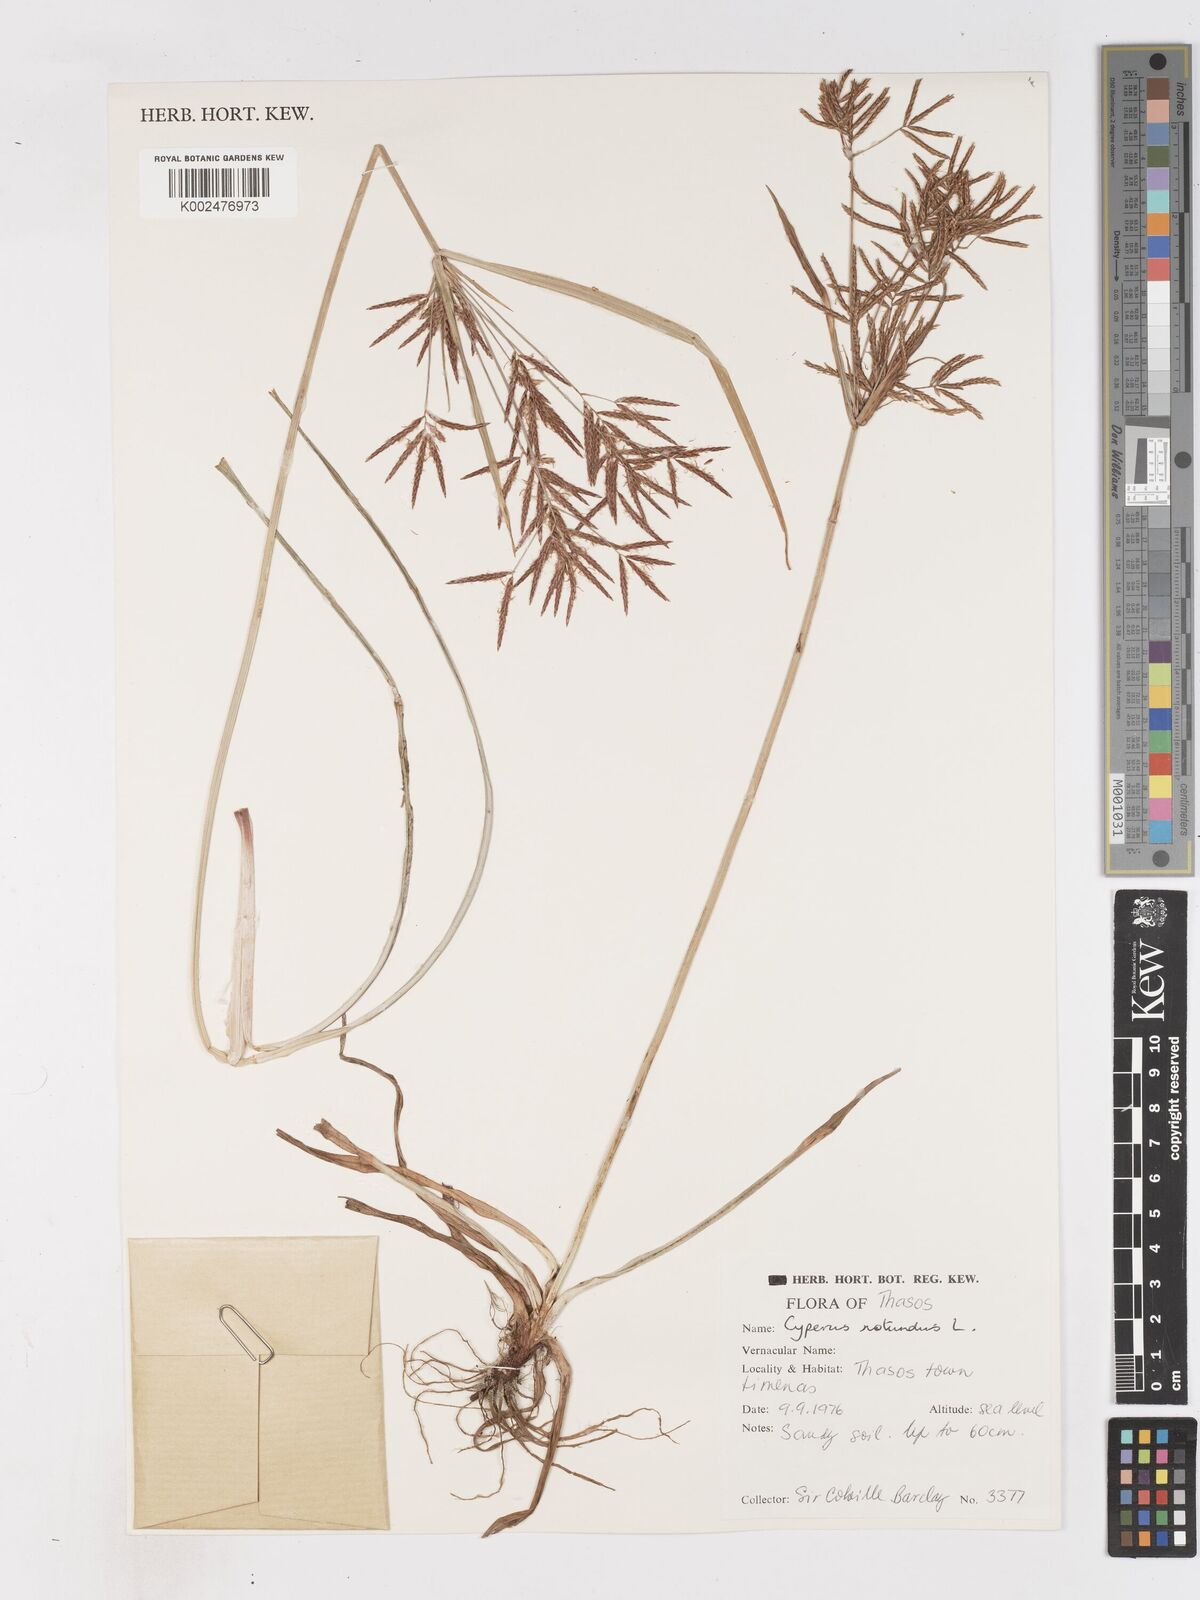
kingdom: Plantae
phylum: Tracheophyta
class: Liliopsida
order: Poales
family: Cyperaceae
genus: Cyperus
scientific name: Cyperus rotundus
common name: Nutgrass
